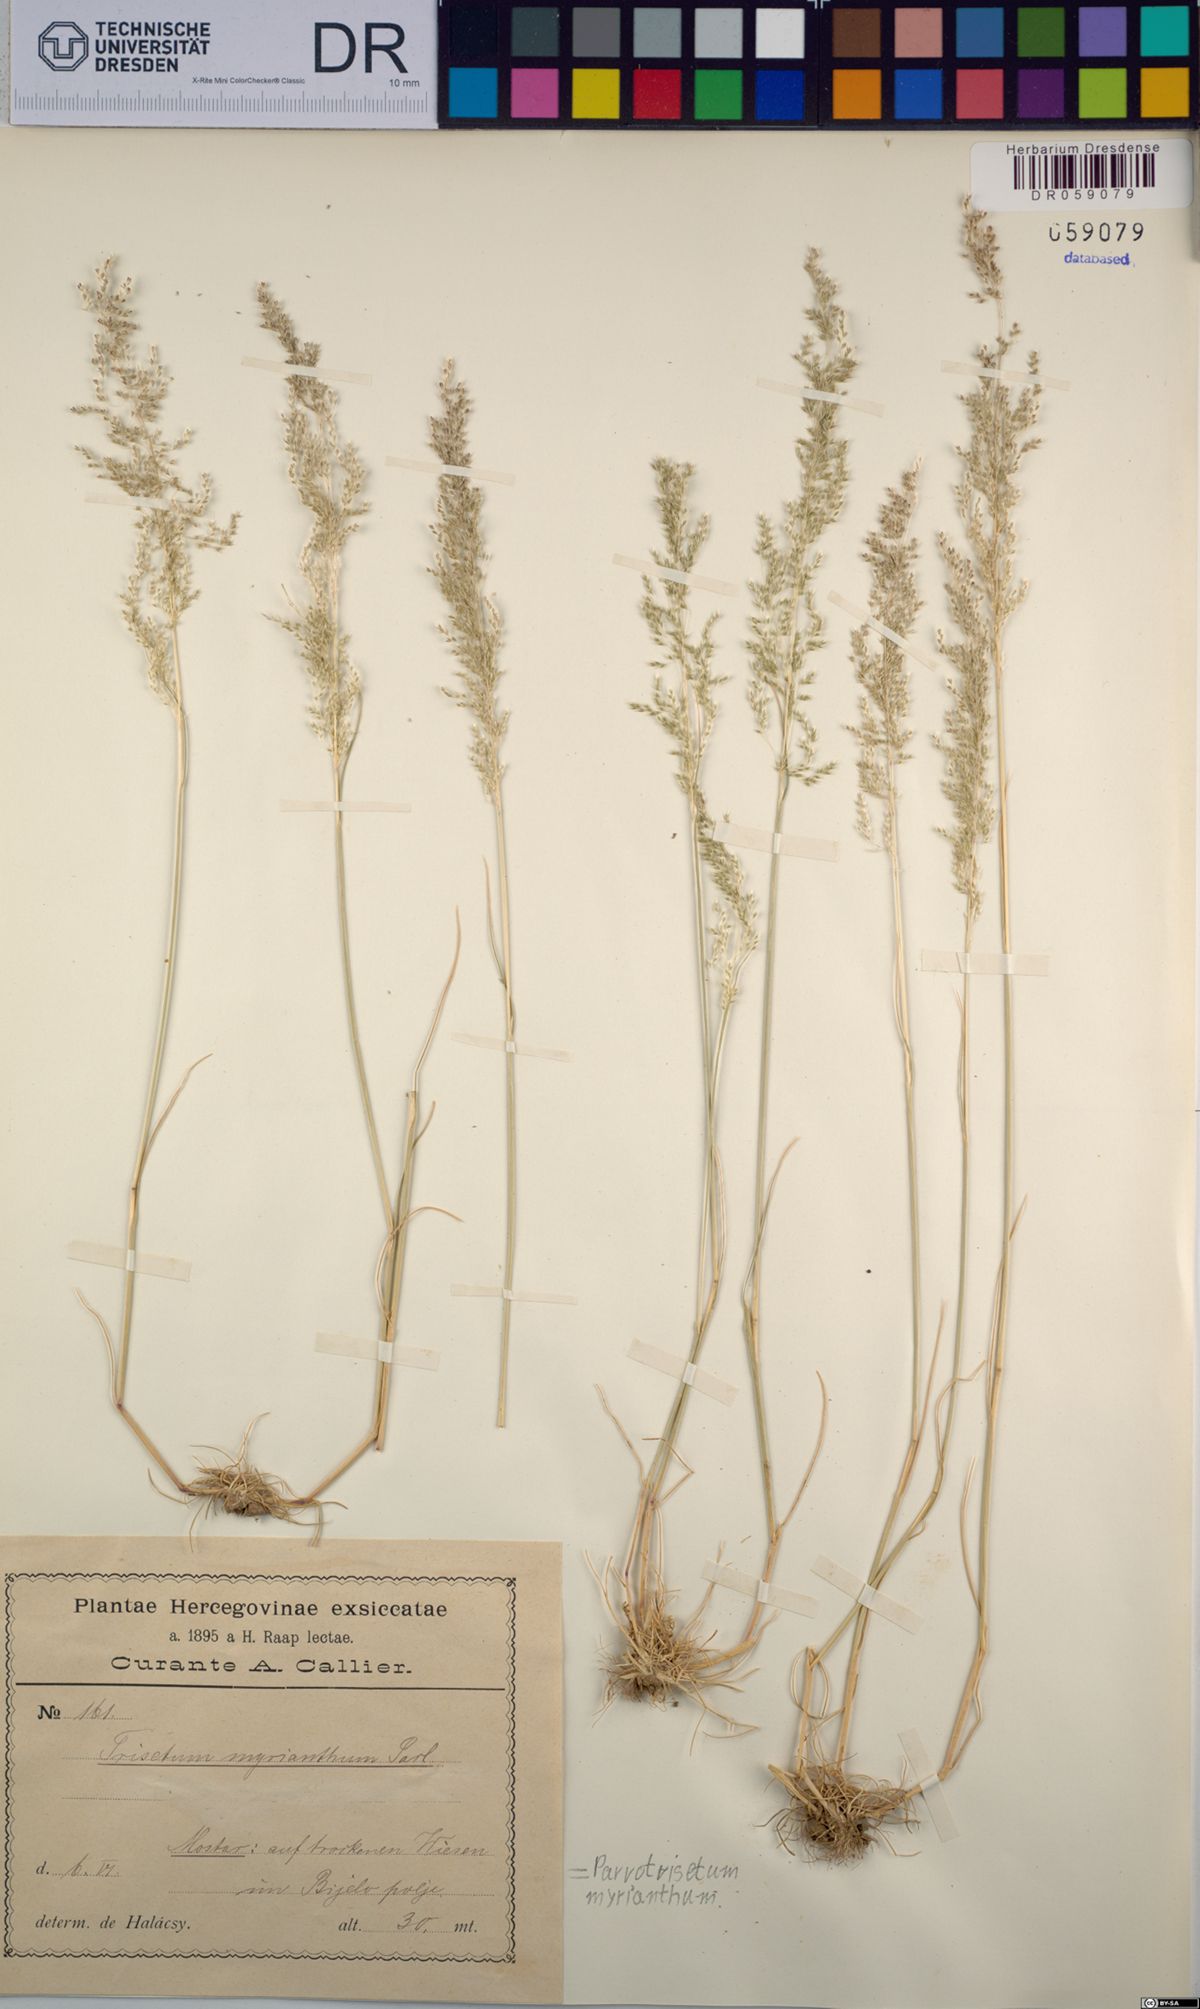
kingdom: Plantae
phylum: Tracheophyta
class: Liliopsida
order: Poales
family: Poaceae
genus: Parvotrisetum
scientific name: Parvotrisetum myrianthum
